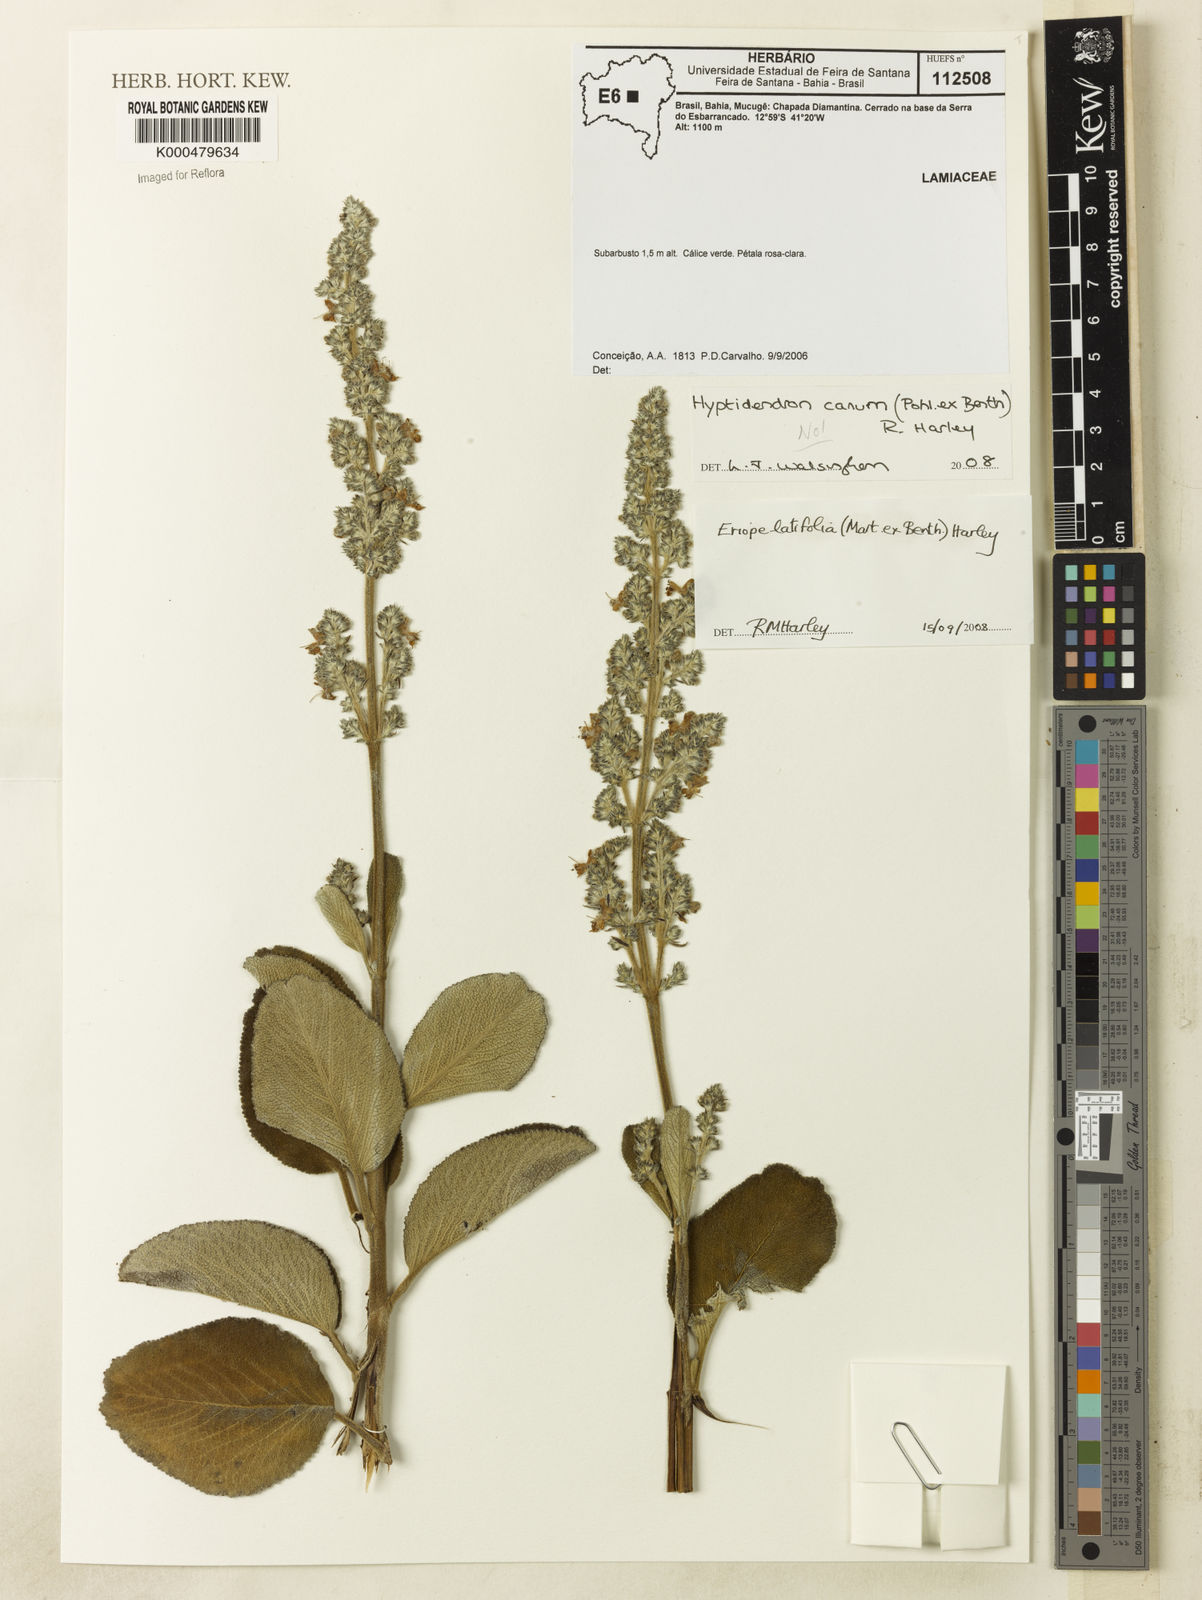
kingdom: Plantae
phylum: Tracheophyta
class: Magnoliopsida
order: Lamiales
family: Lamiaceae
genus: Hyptidendron
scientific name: Hyptidendron canum
